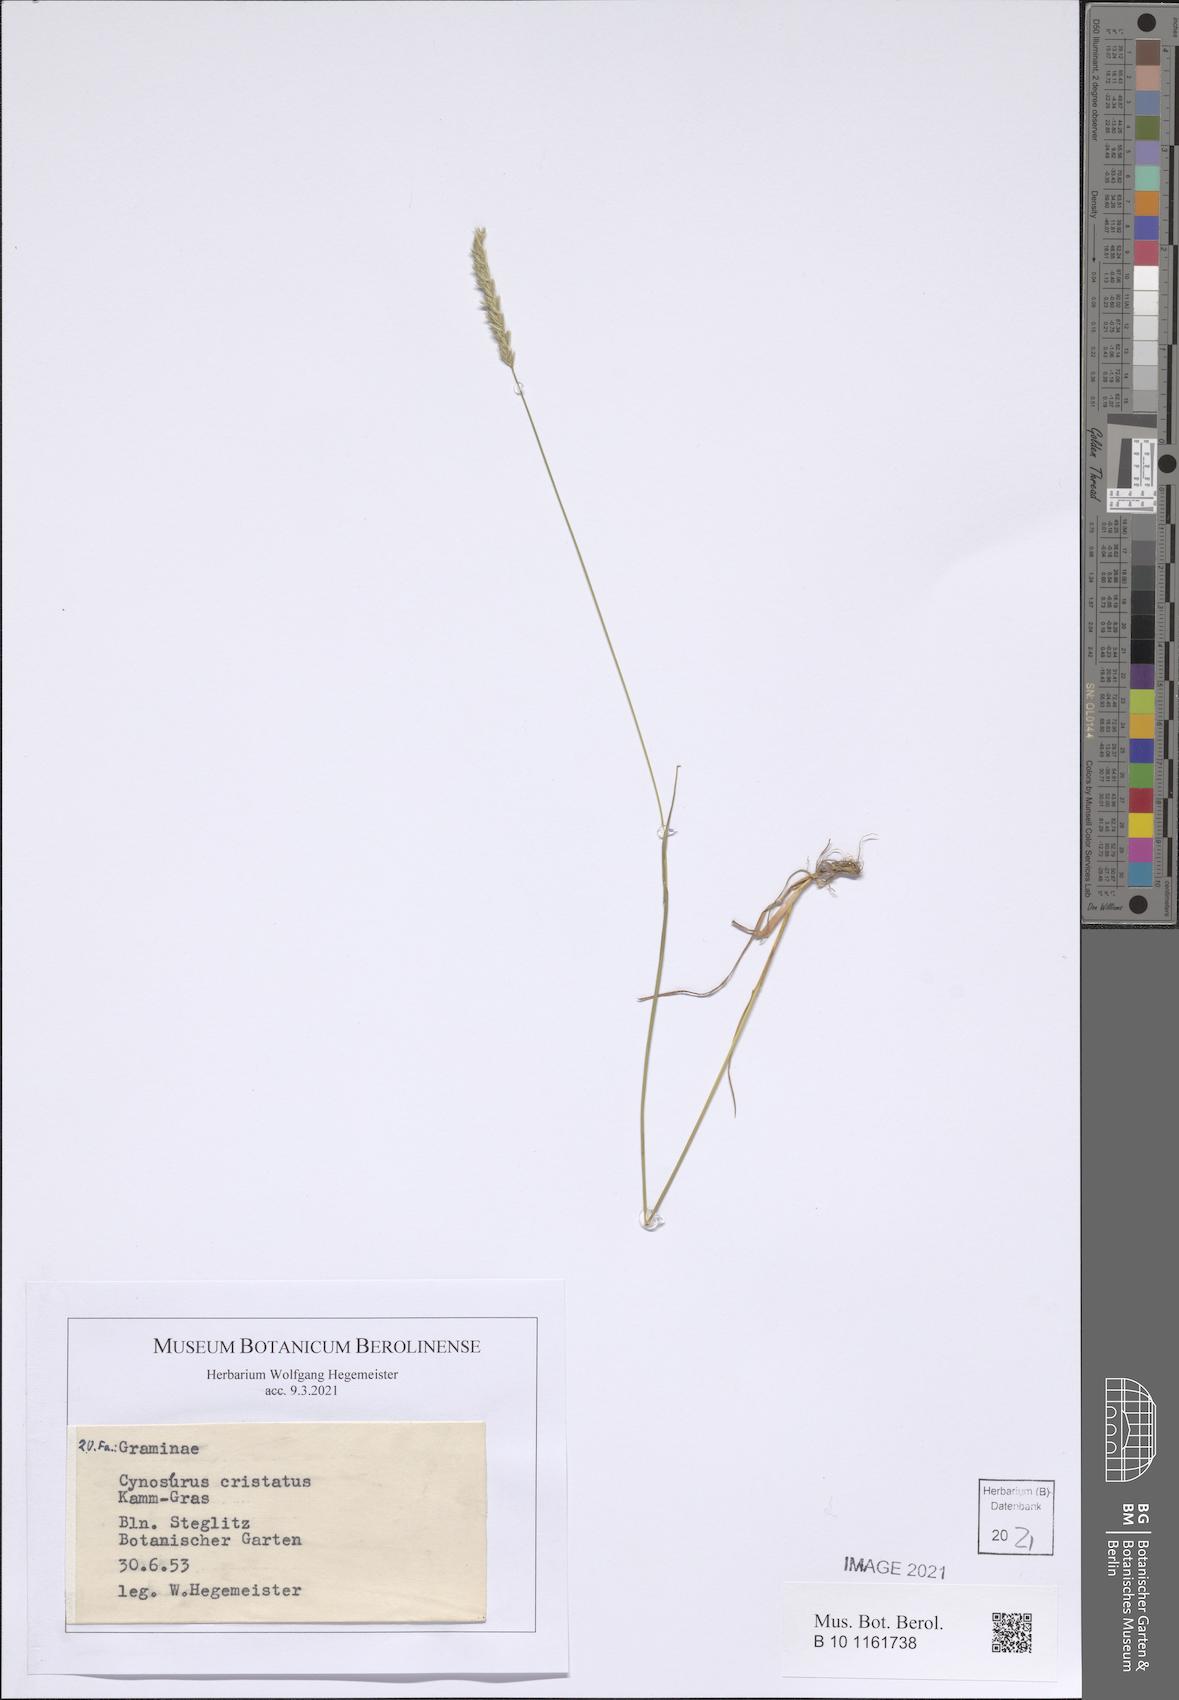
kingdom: Plantae
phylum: Tracheophyta
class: Liliopsida
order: Poales
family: Poaceae
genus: Cynosurus
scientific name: Cynosurus cristatus
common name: Crested dog's-tail
